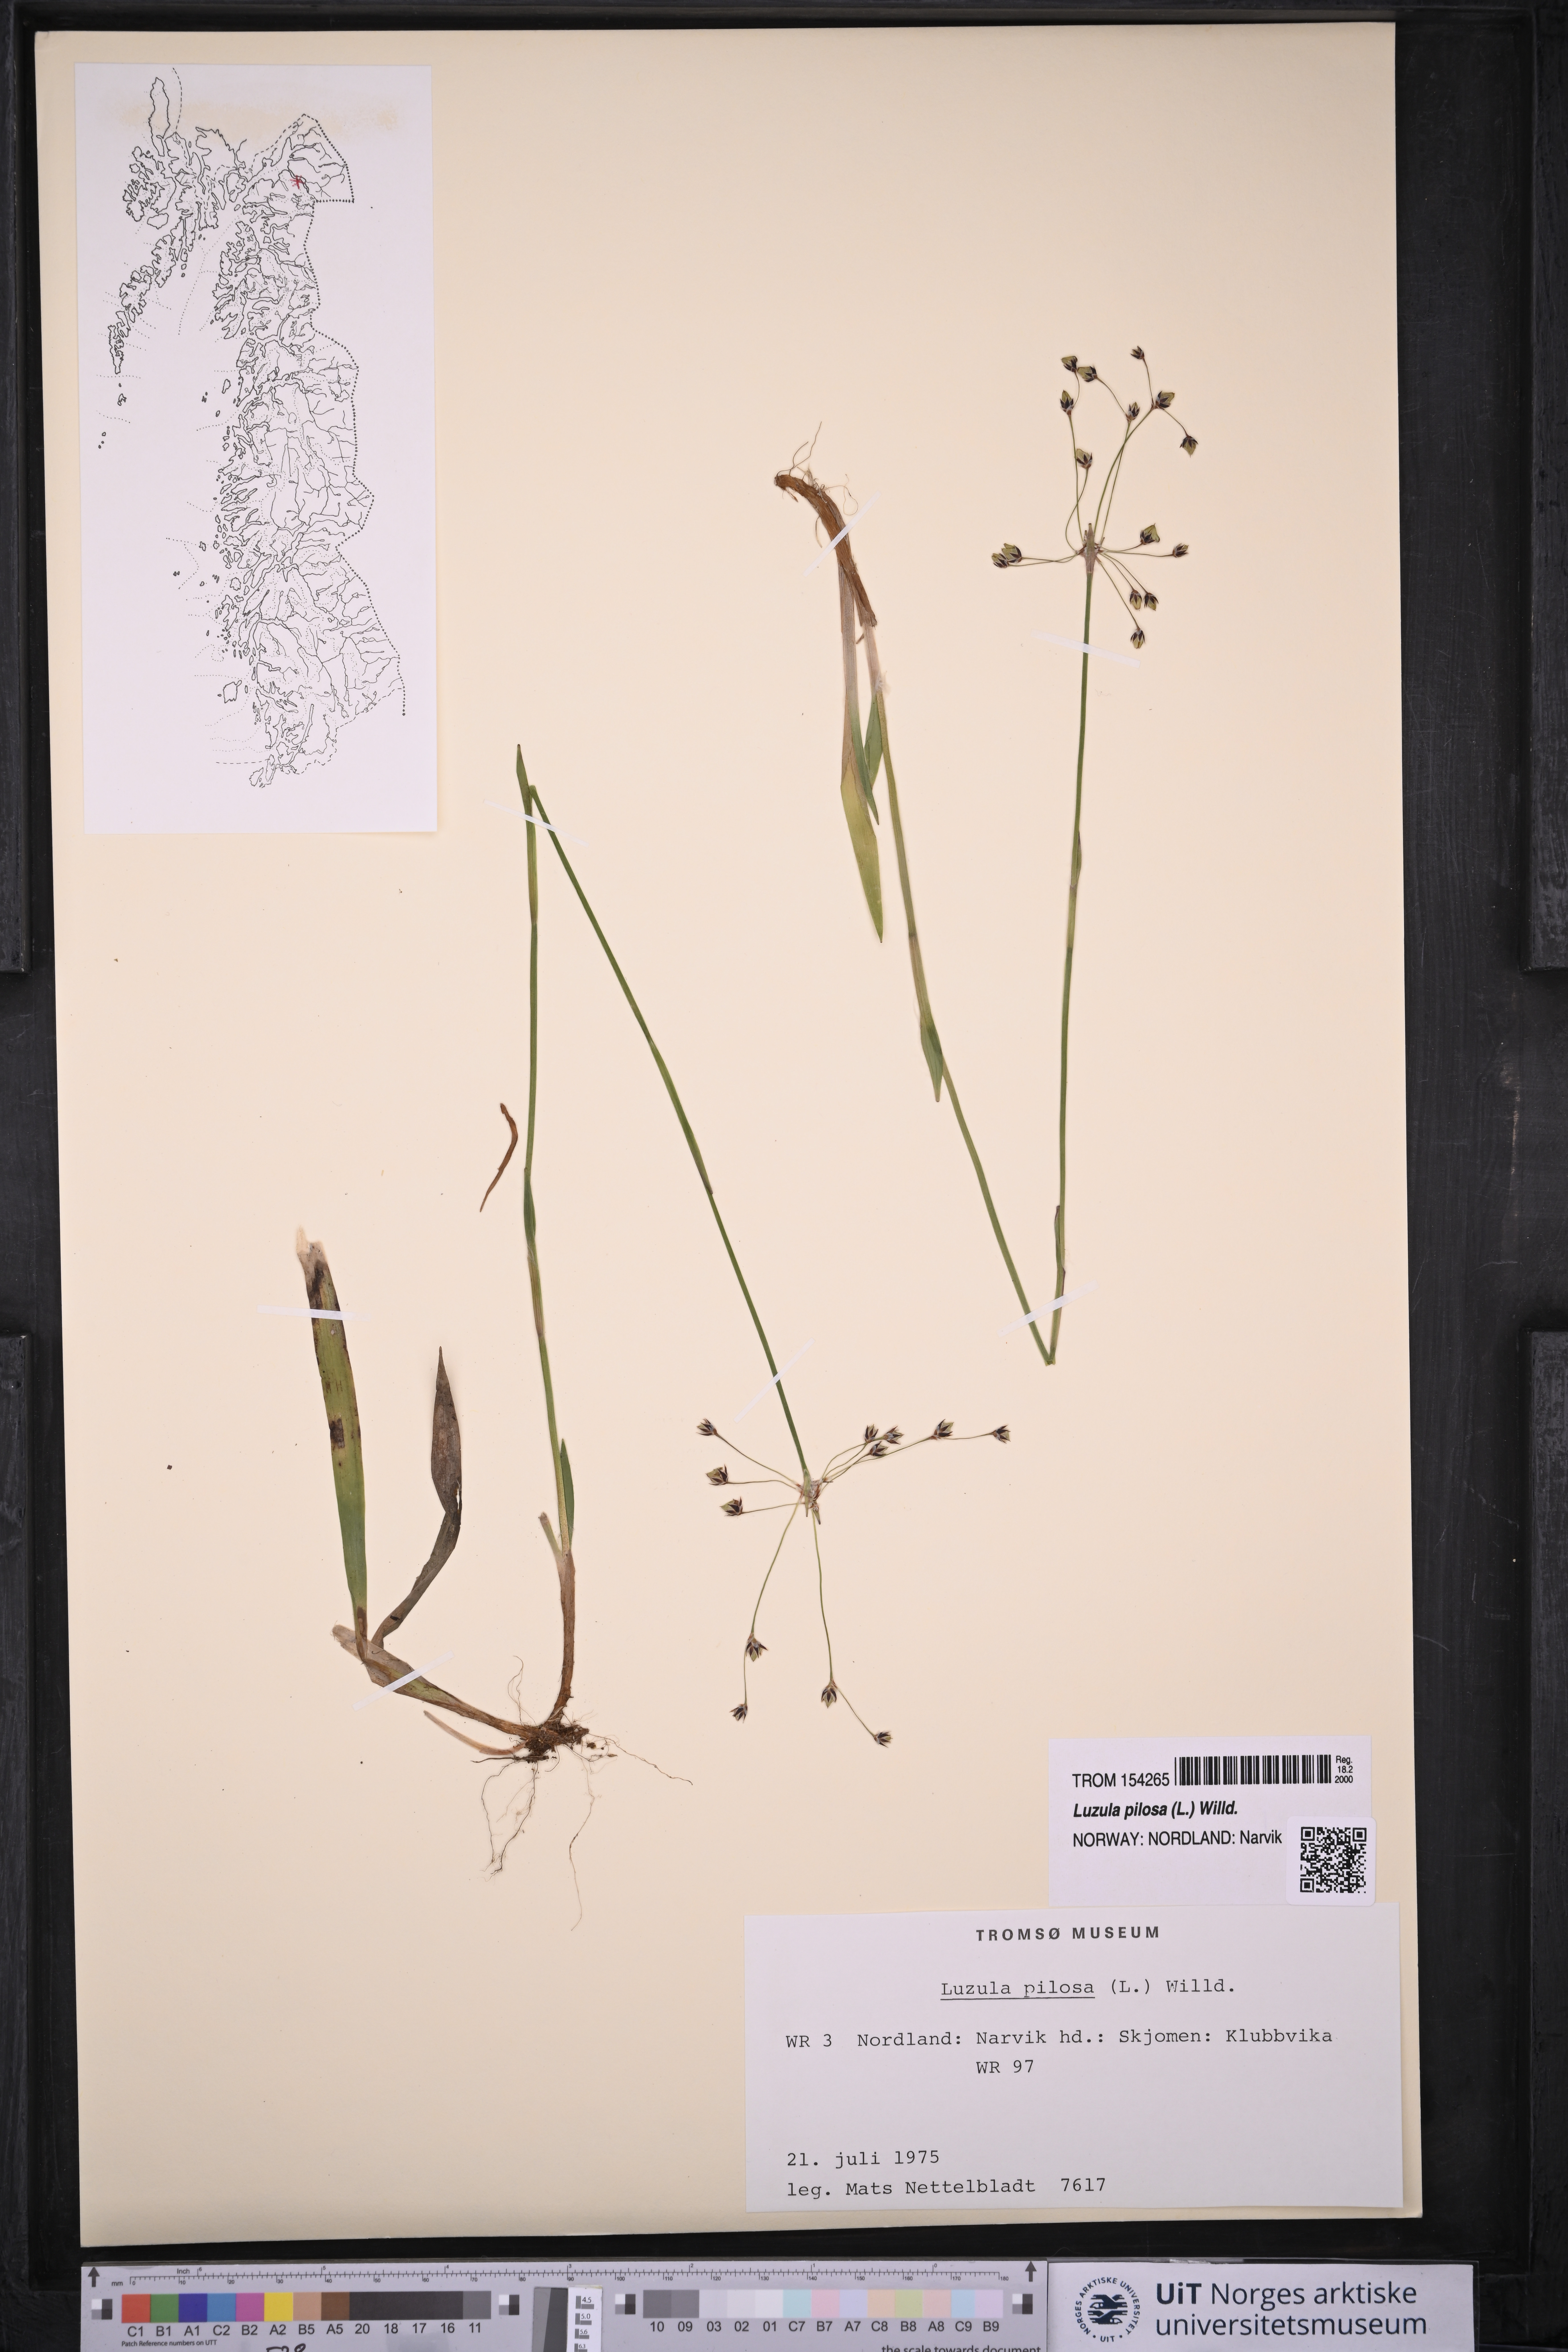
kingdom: Plantae
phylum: Tracheophyta
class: Liliopsida
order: Poales
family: Juncaceae
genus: Luzula
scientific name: Luzula pilosa
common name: Hairy wood-rush
